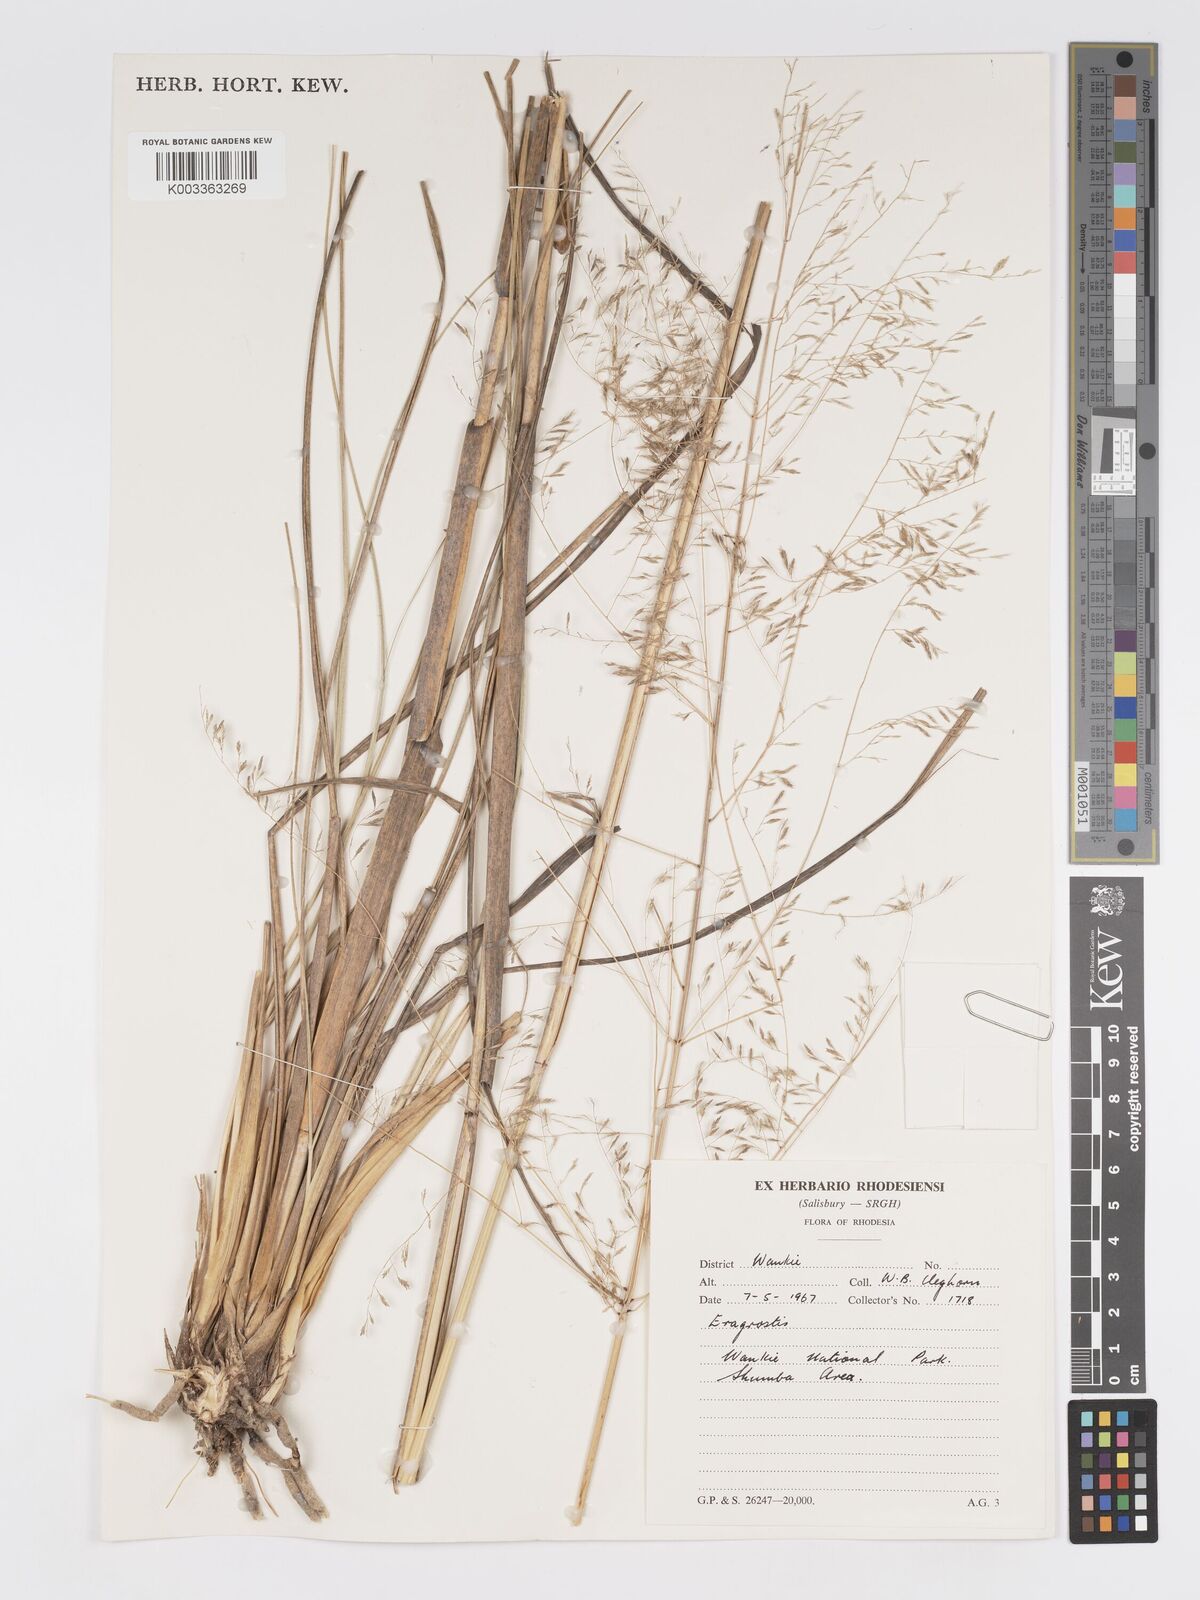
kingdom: Plantae
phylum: Tracheophyta
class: Liliopsida
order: Poales
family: Poaceae
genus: Eragrostis
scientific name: Eragrostis curvula
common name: African love-grass
